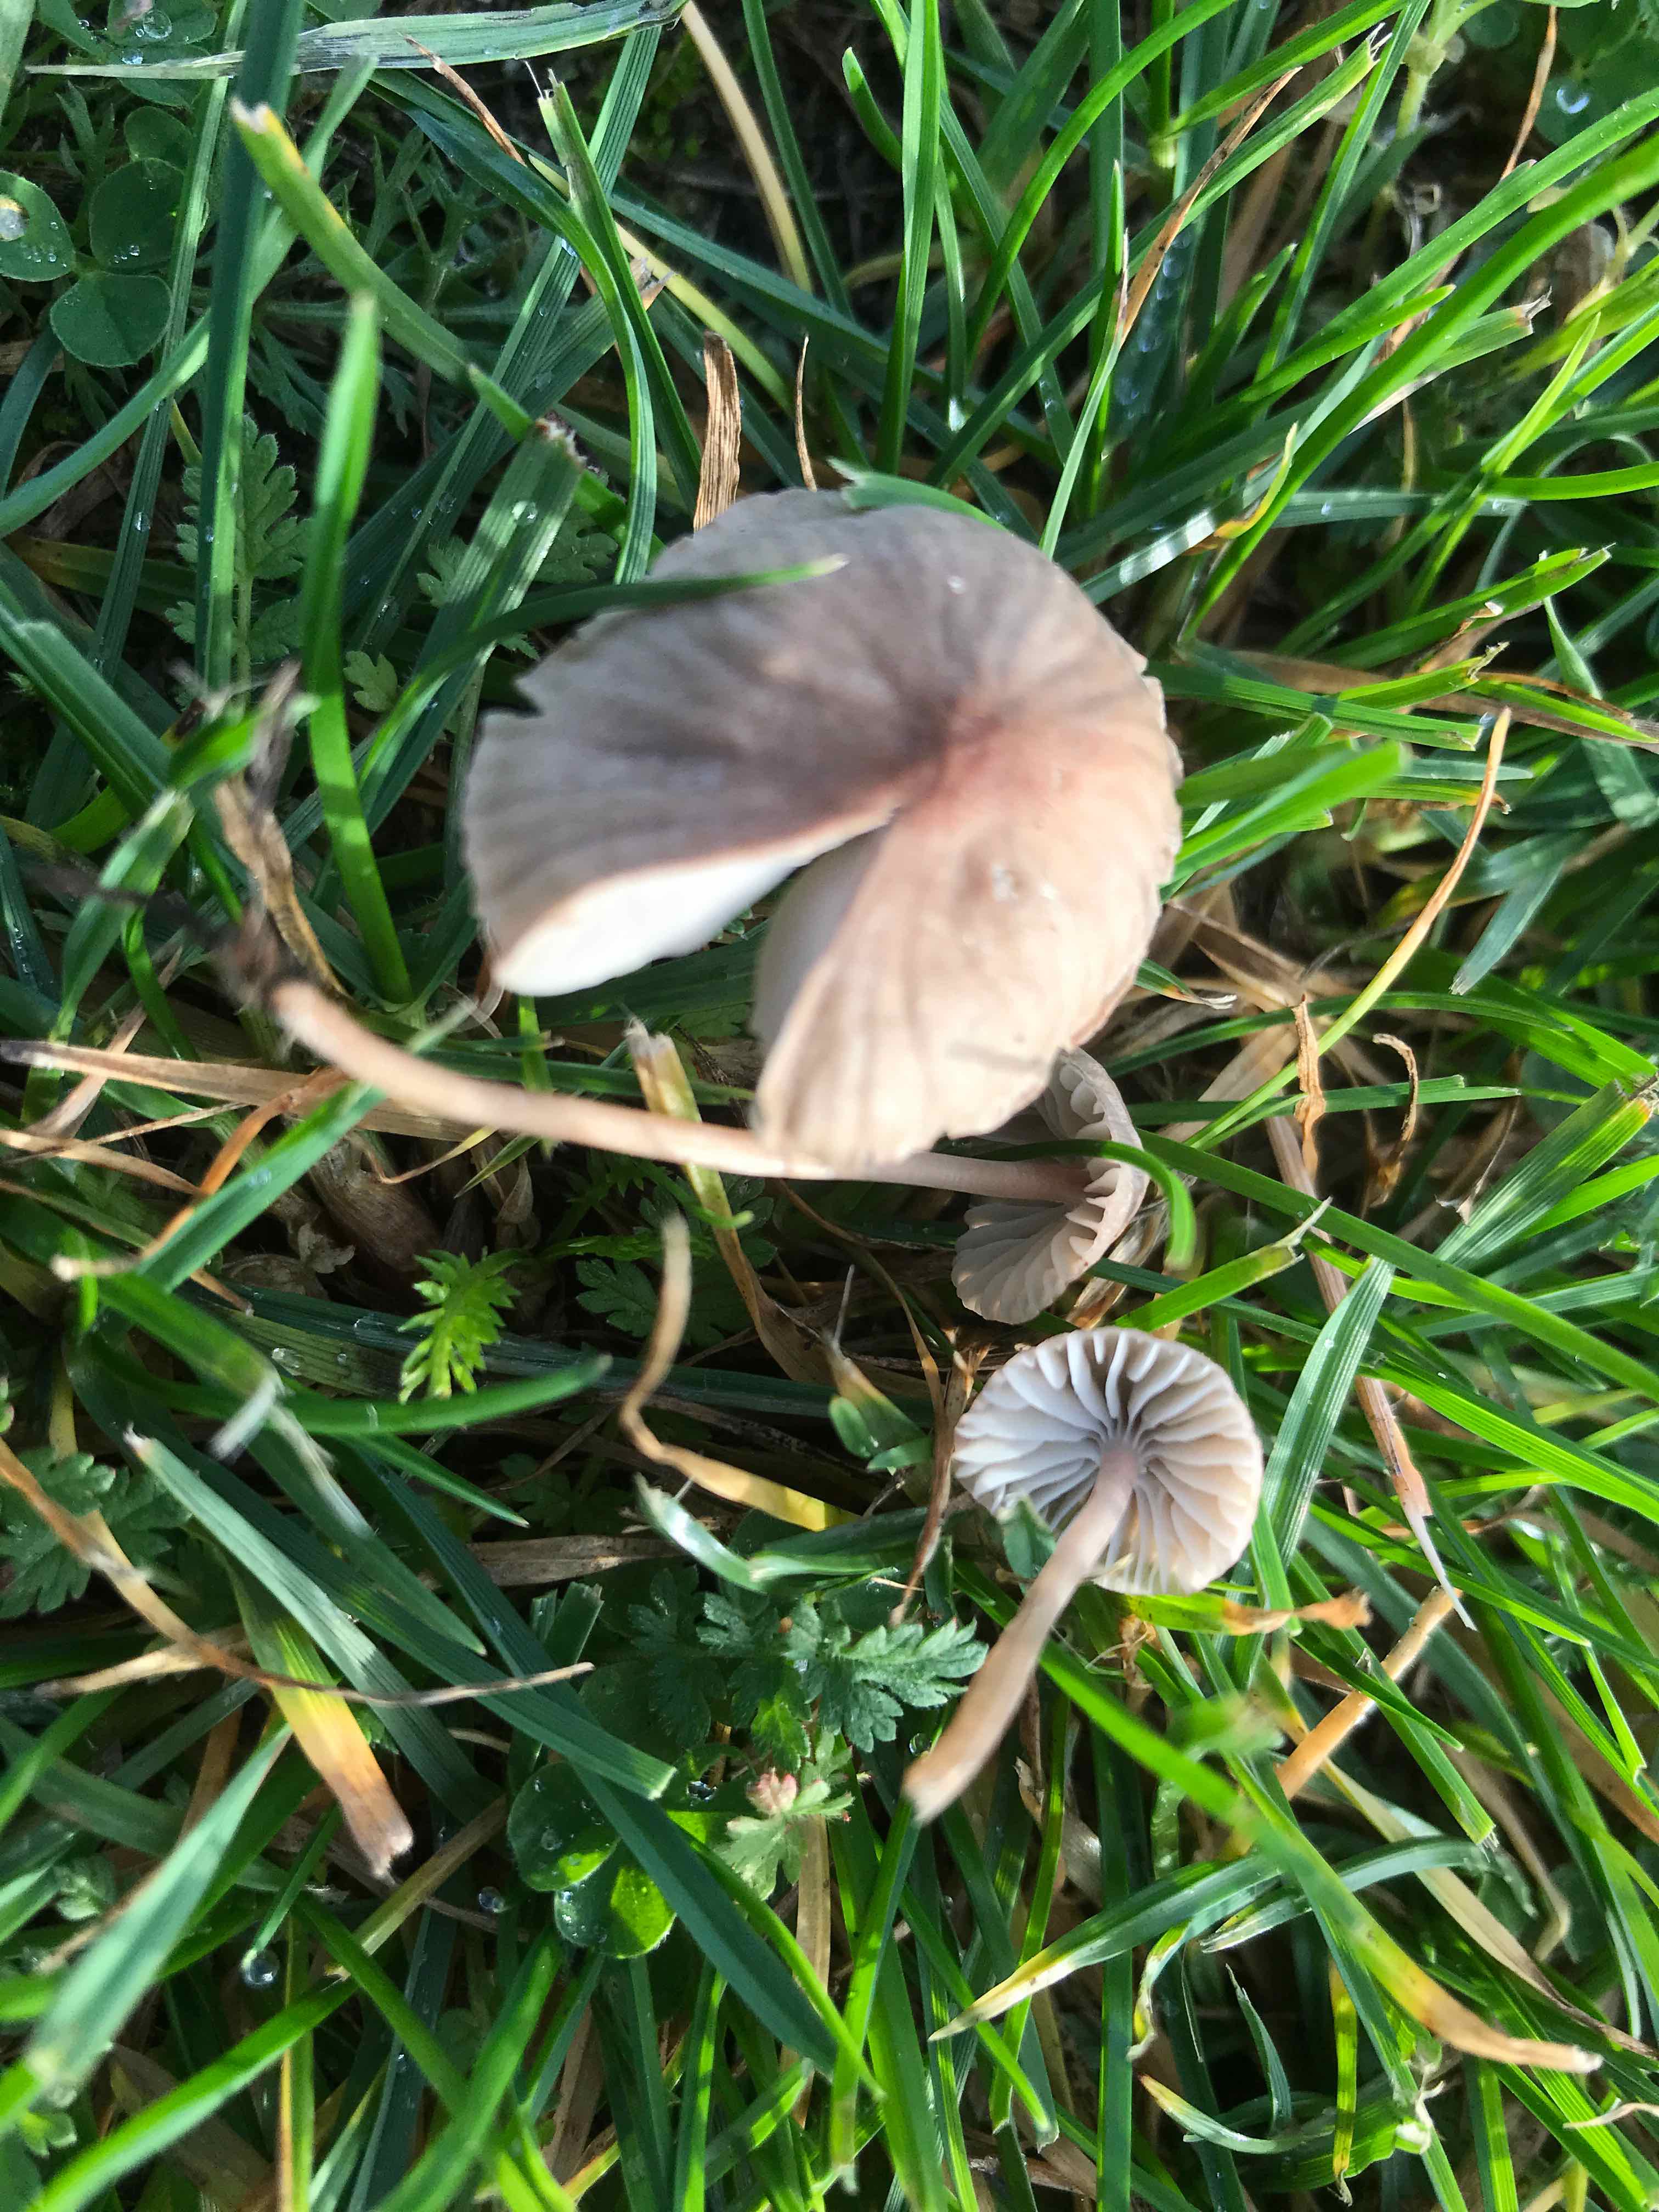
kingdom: Fungi
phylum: Basidiomycota
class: Agaricomycetes
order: Agaricales
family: Mycenaceae
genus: Mycena
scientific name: Mycena
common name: huesvamp
